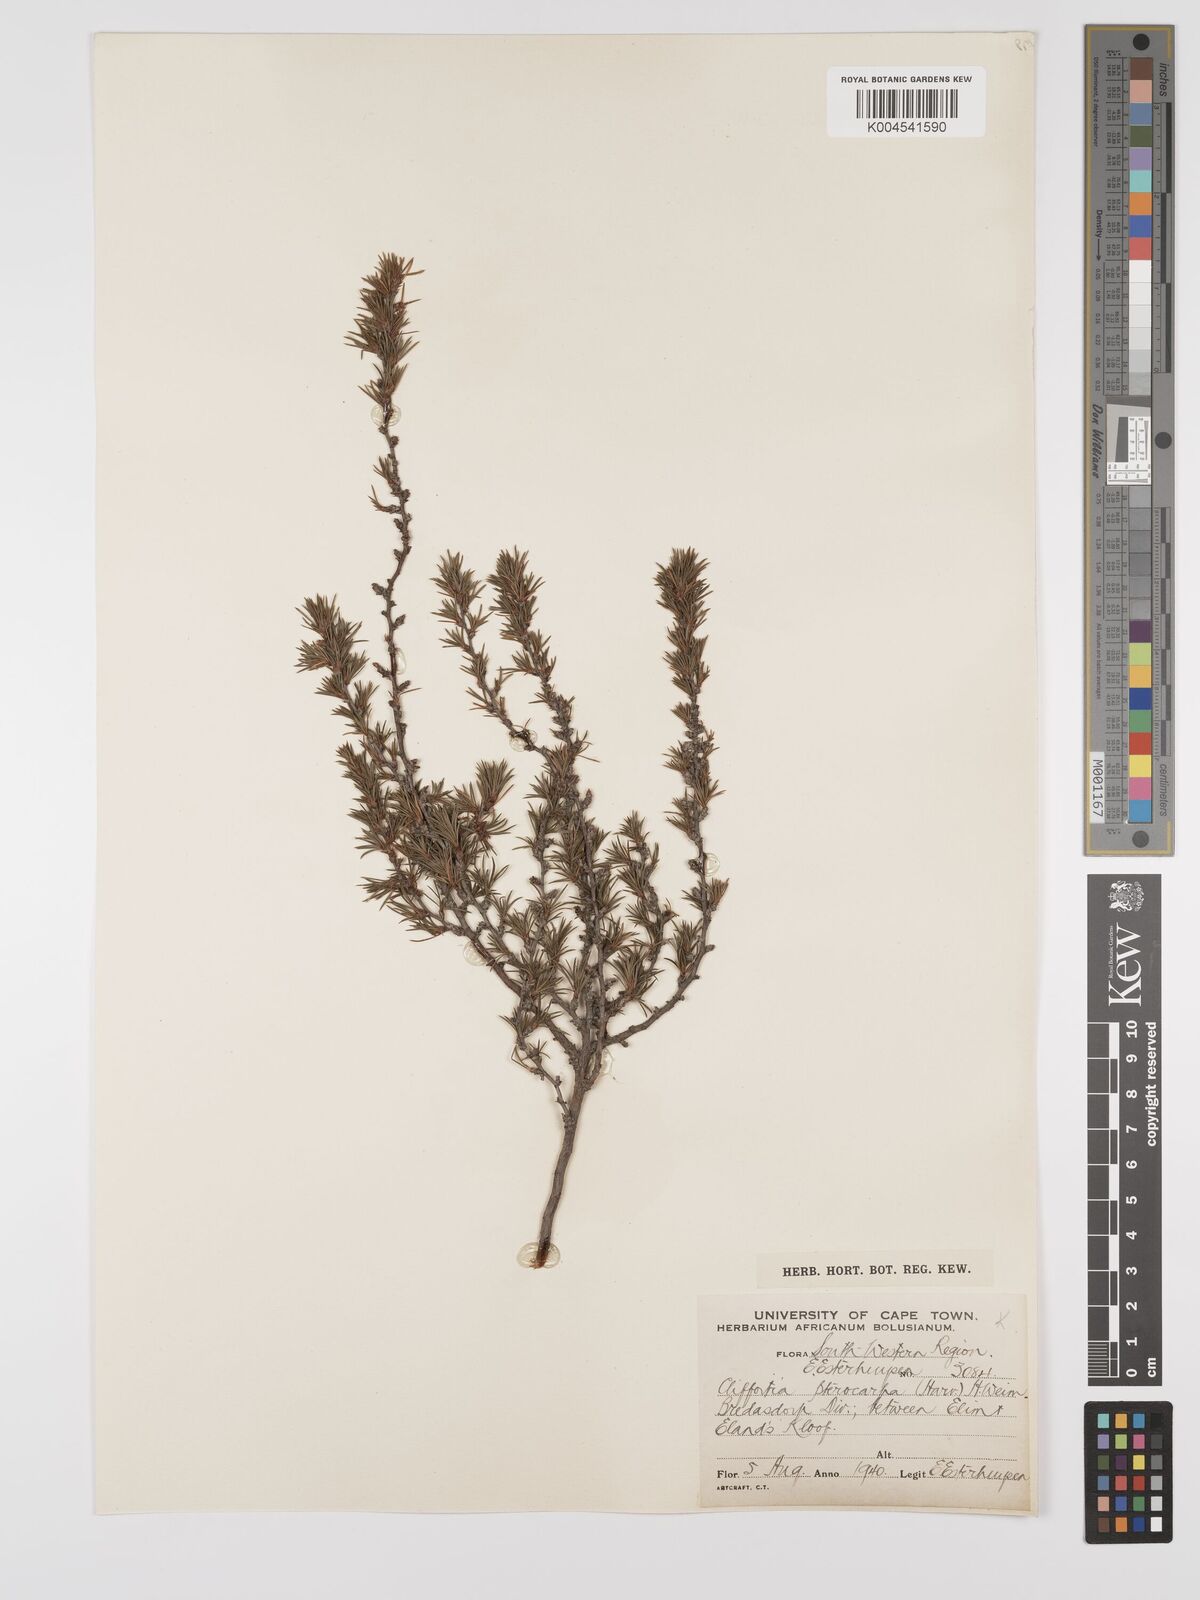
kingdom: Plantae
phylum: Tracheophyta
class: Magnoliopsida
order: Rosales
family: Rosaceae
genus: Cliffortia
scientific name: Cliffortia pterocarpa
